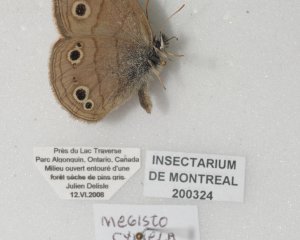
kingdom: Animalia
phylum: Arthropoda
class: Insecta
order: Lepidoptera
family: Nymphalidae
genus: Euptychia
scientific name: Euptychia cymela
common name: Little Wood Satyr
